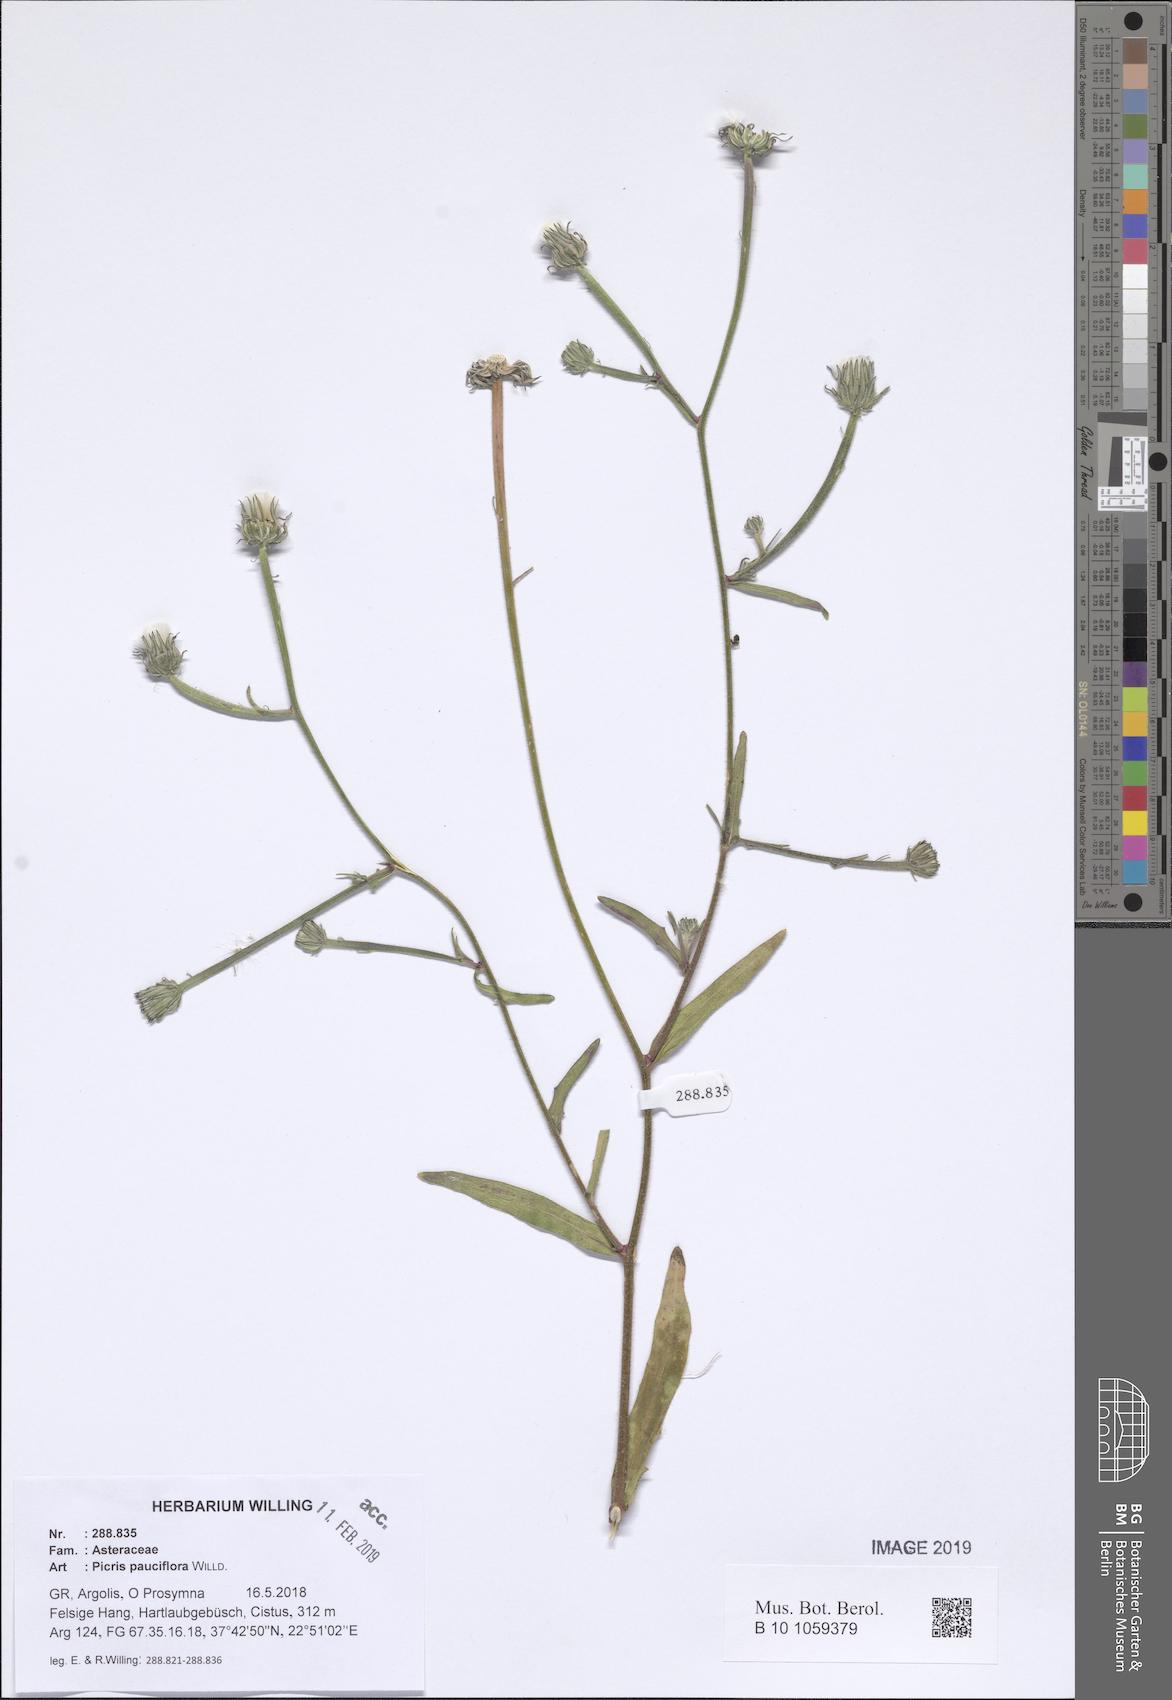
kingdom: Plantae
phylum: Tracheophyta
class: Magnoliopsida
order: Asterales
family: Asteraceae
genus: Picris
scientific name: Picris pauciflora
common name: Smallflower oxtongue
